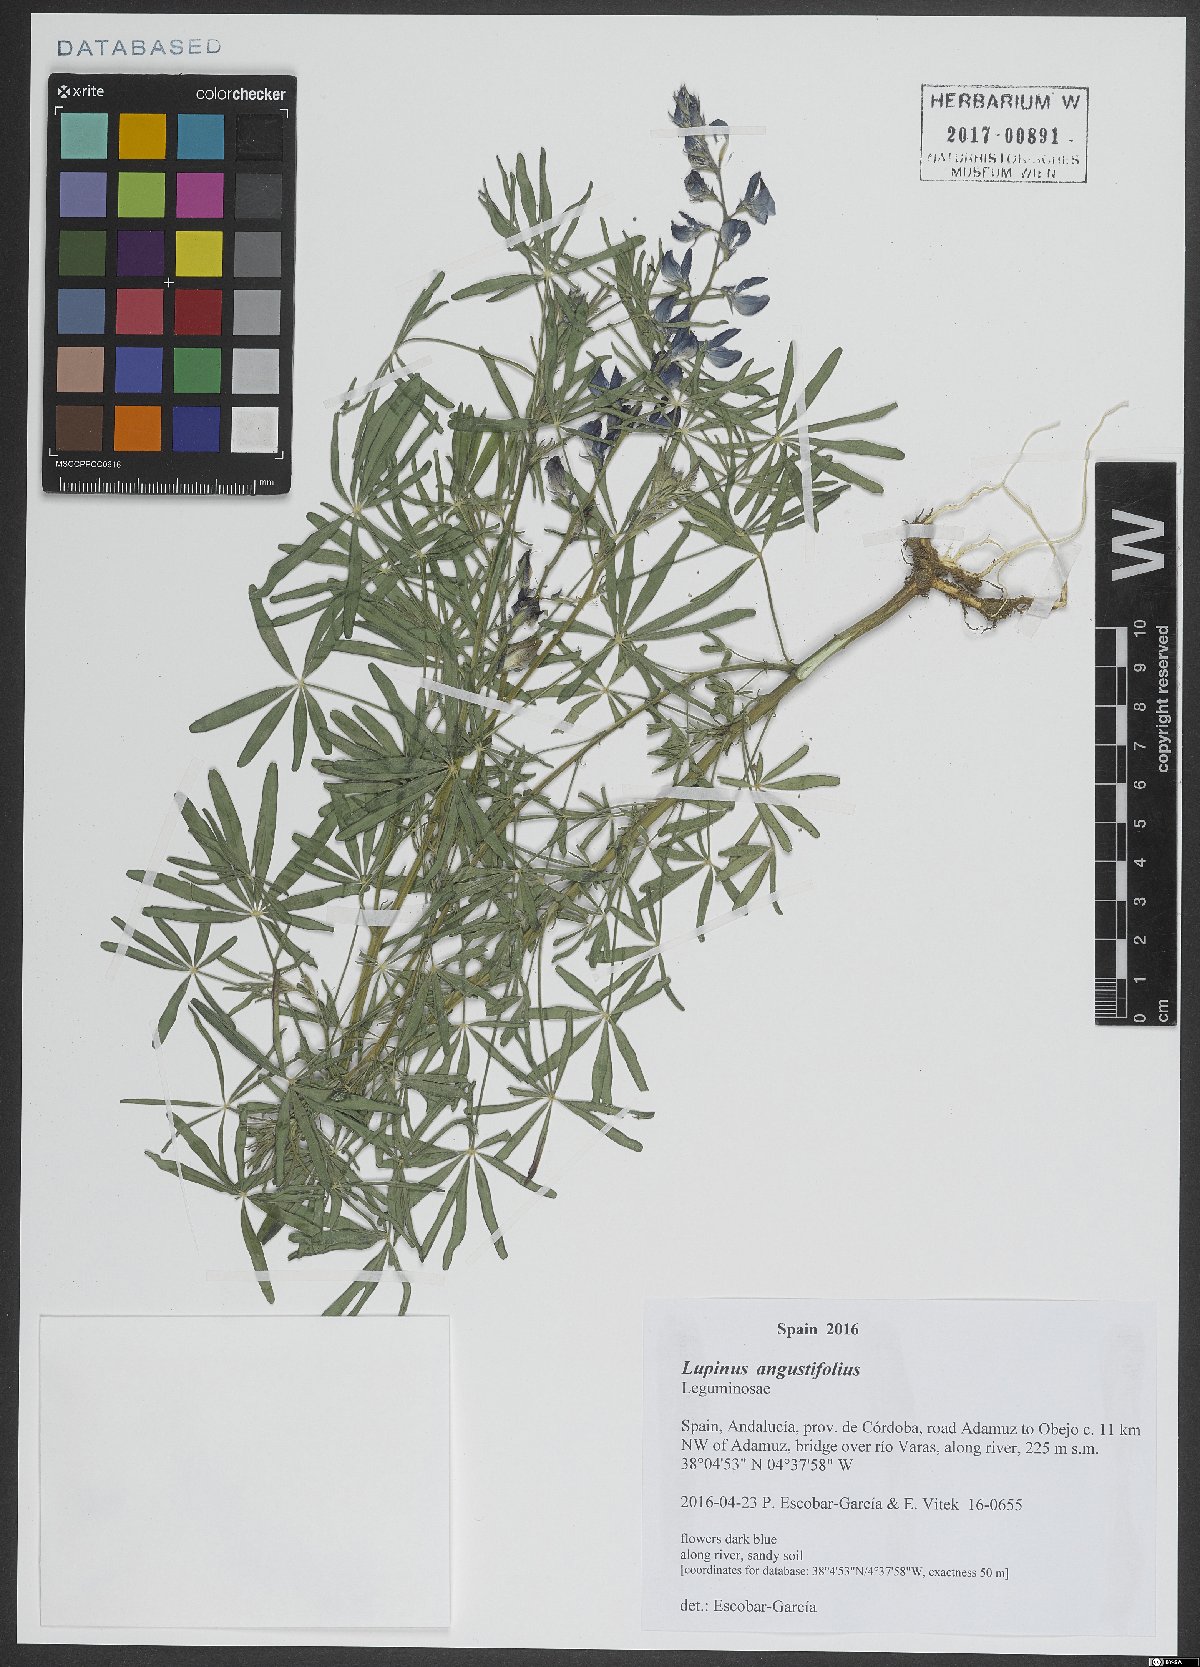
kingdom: Plantae
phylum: Tracheophyta
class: Magnoliopsida
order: Fabales
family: Fabaceae
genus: Lupinus
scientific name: Lupinus angustifolius
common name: Narrow-leaved lupin
